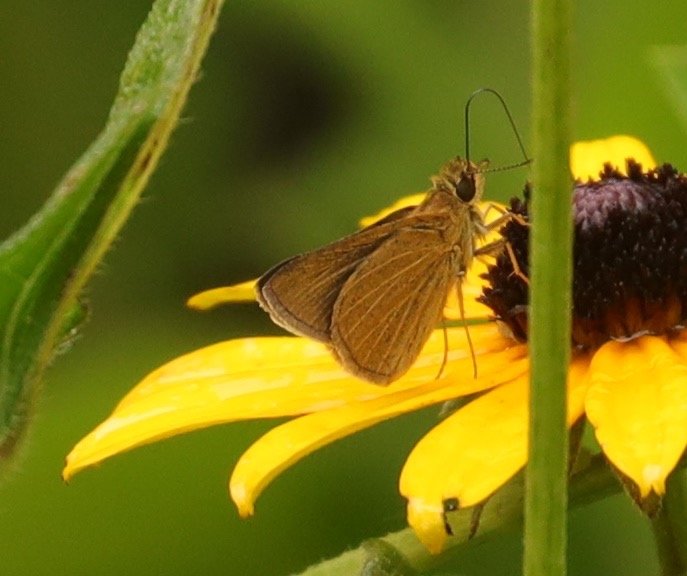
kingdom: Animalia
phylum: Arthropoda
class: Insecta
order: Lepidoptera
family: Hesperiidae
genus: Nastra
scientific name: Nastra lherminier
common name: Swarthy Skipper
